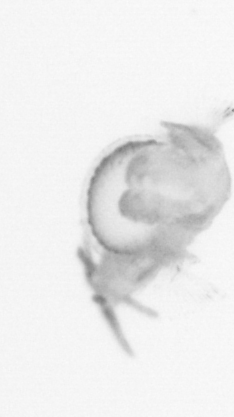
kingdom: Animalia
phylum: Annelida
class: Polychaeta
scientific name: Polychaeta
